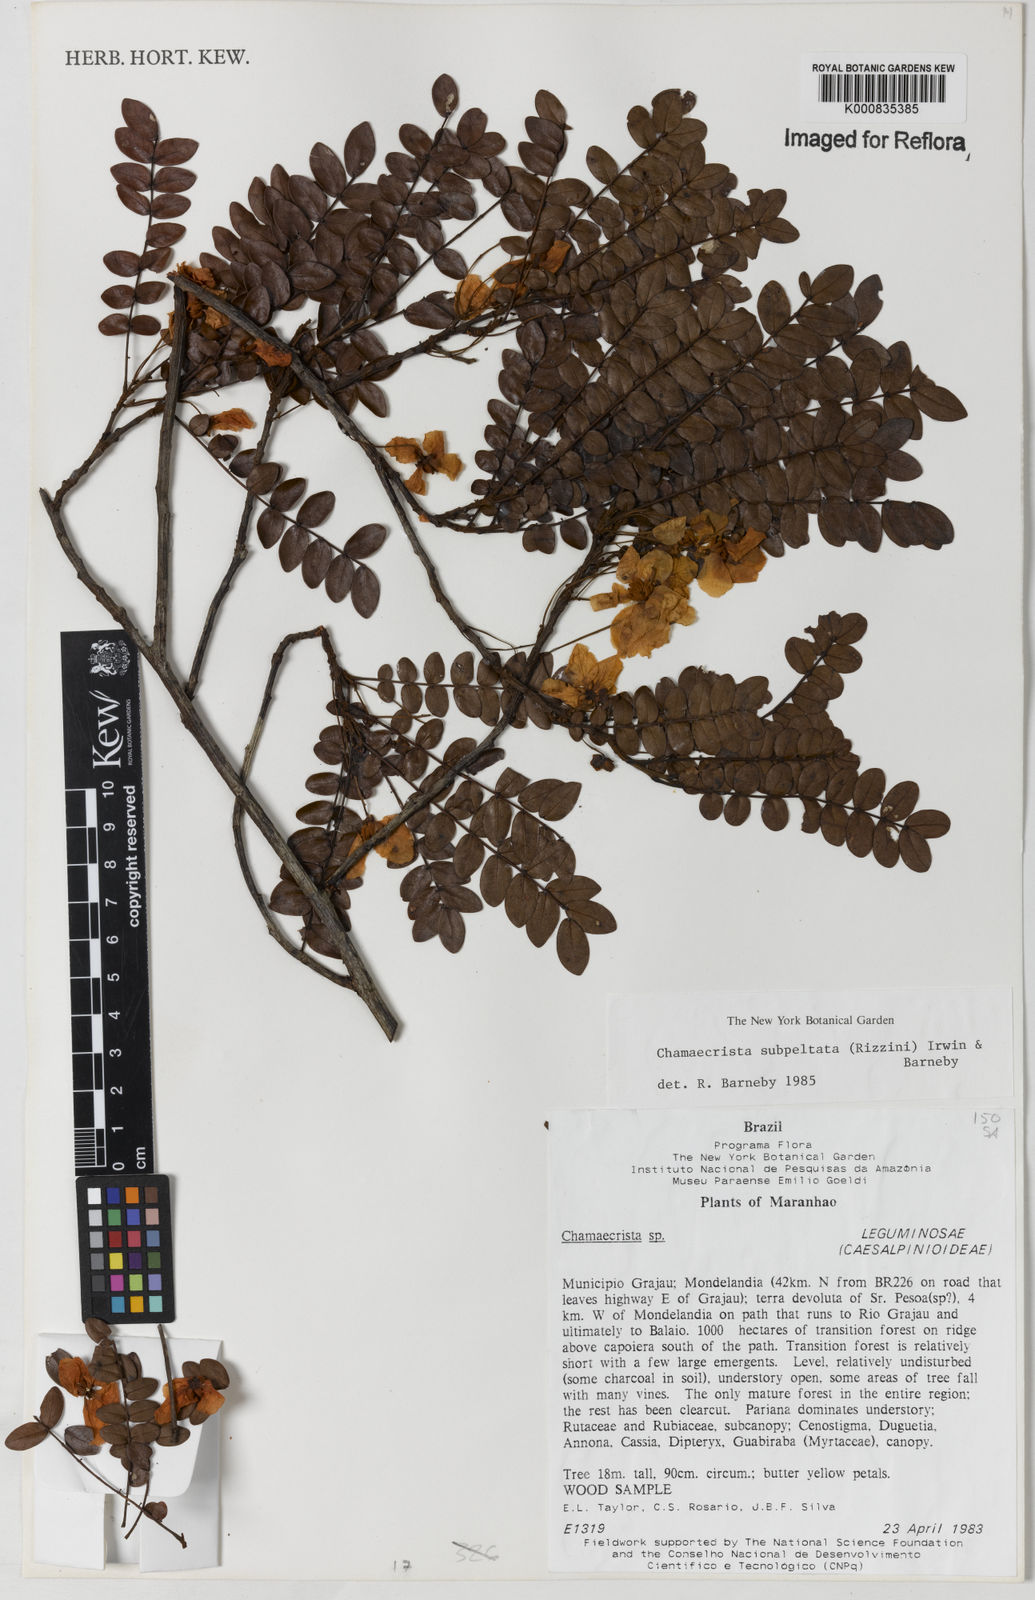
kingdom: Plantae
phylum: Tracheophyta
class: Magnoliopsida
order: Fabales
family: Fabaceae
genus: Chamaecrista
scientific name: Chamaecrista subpeltata
